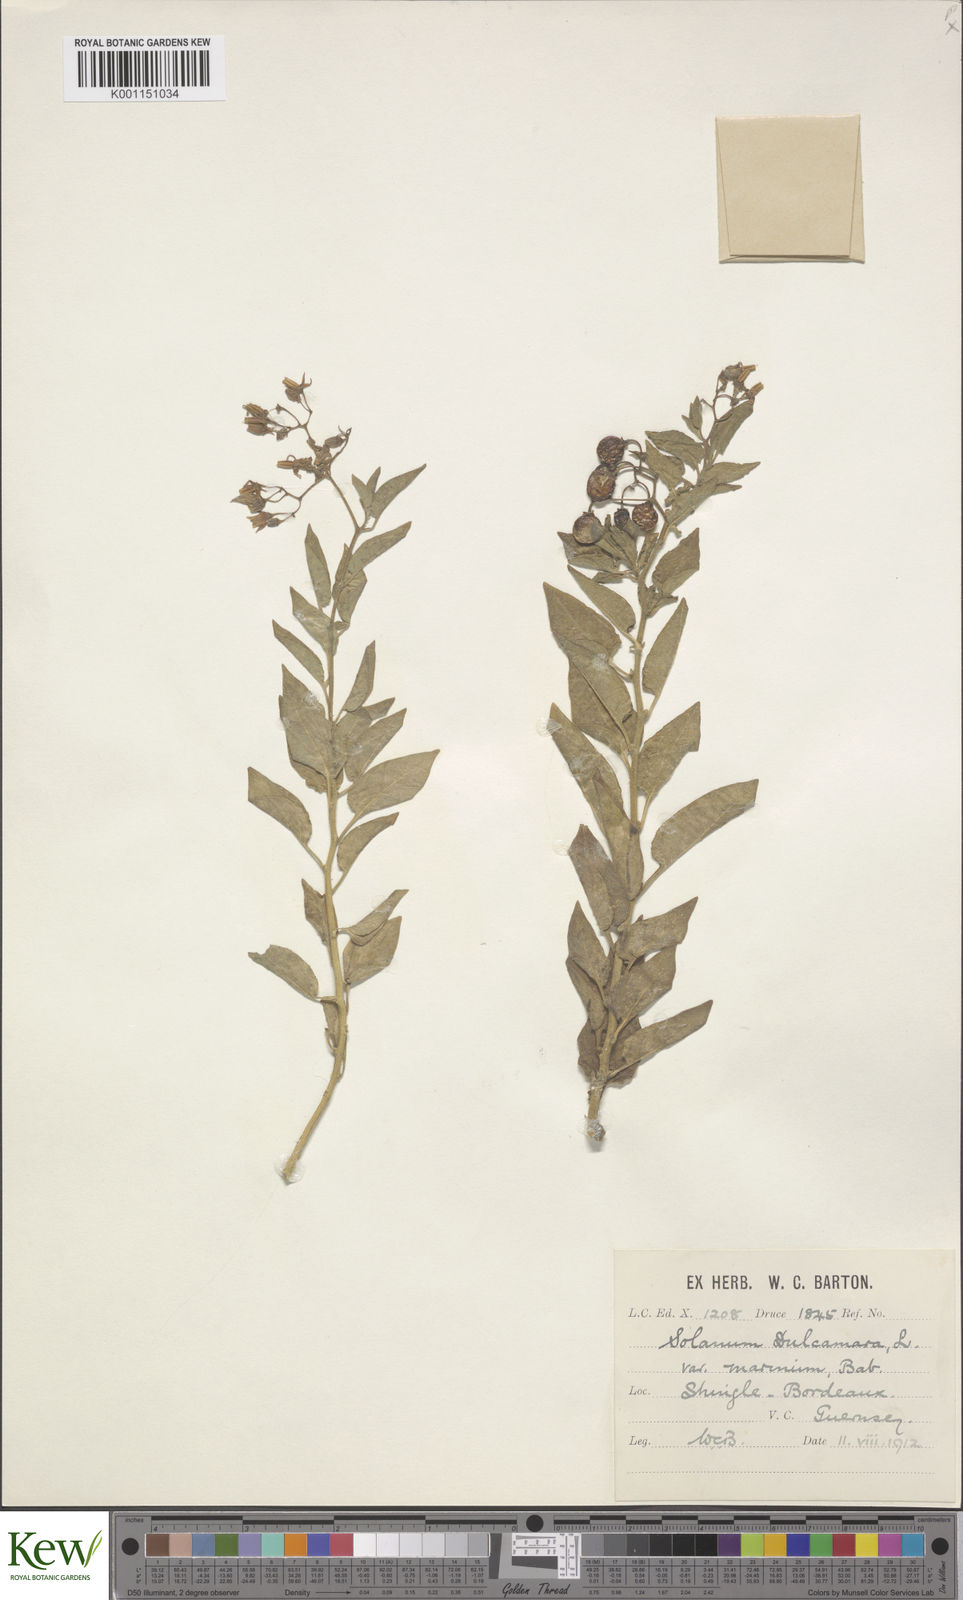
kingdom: Plantae
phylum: Tracheophyta
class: Magnoliopsida
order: Solanales
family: Solanaceae
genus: Solanum
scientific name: Solanum dulcamara
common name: Climbing nightshade
